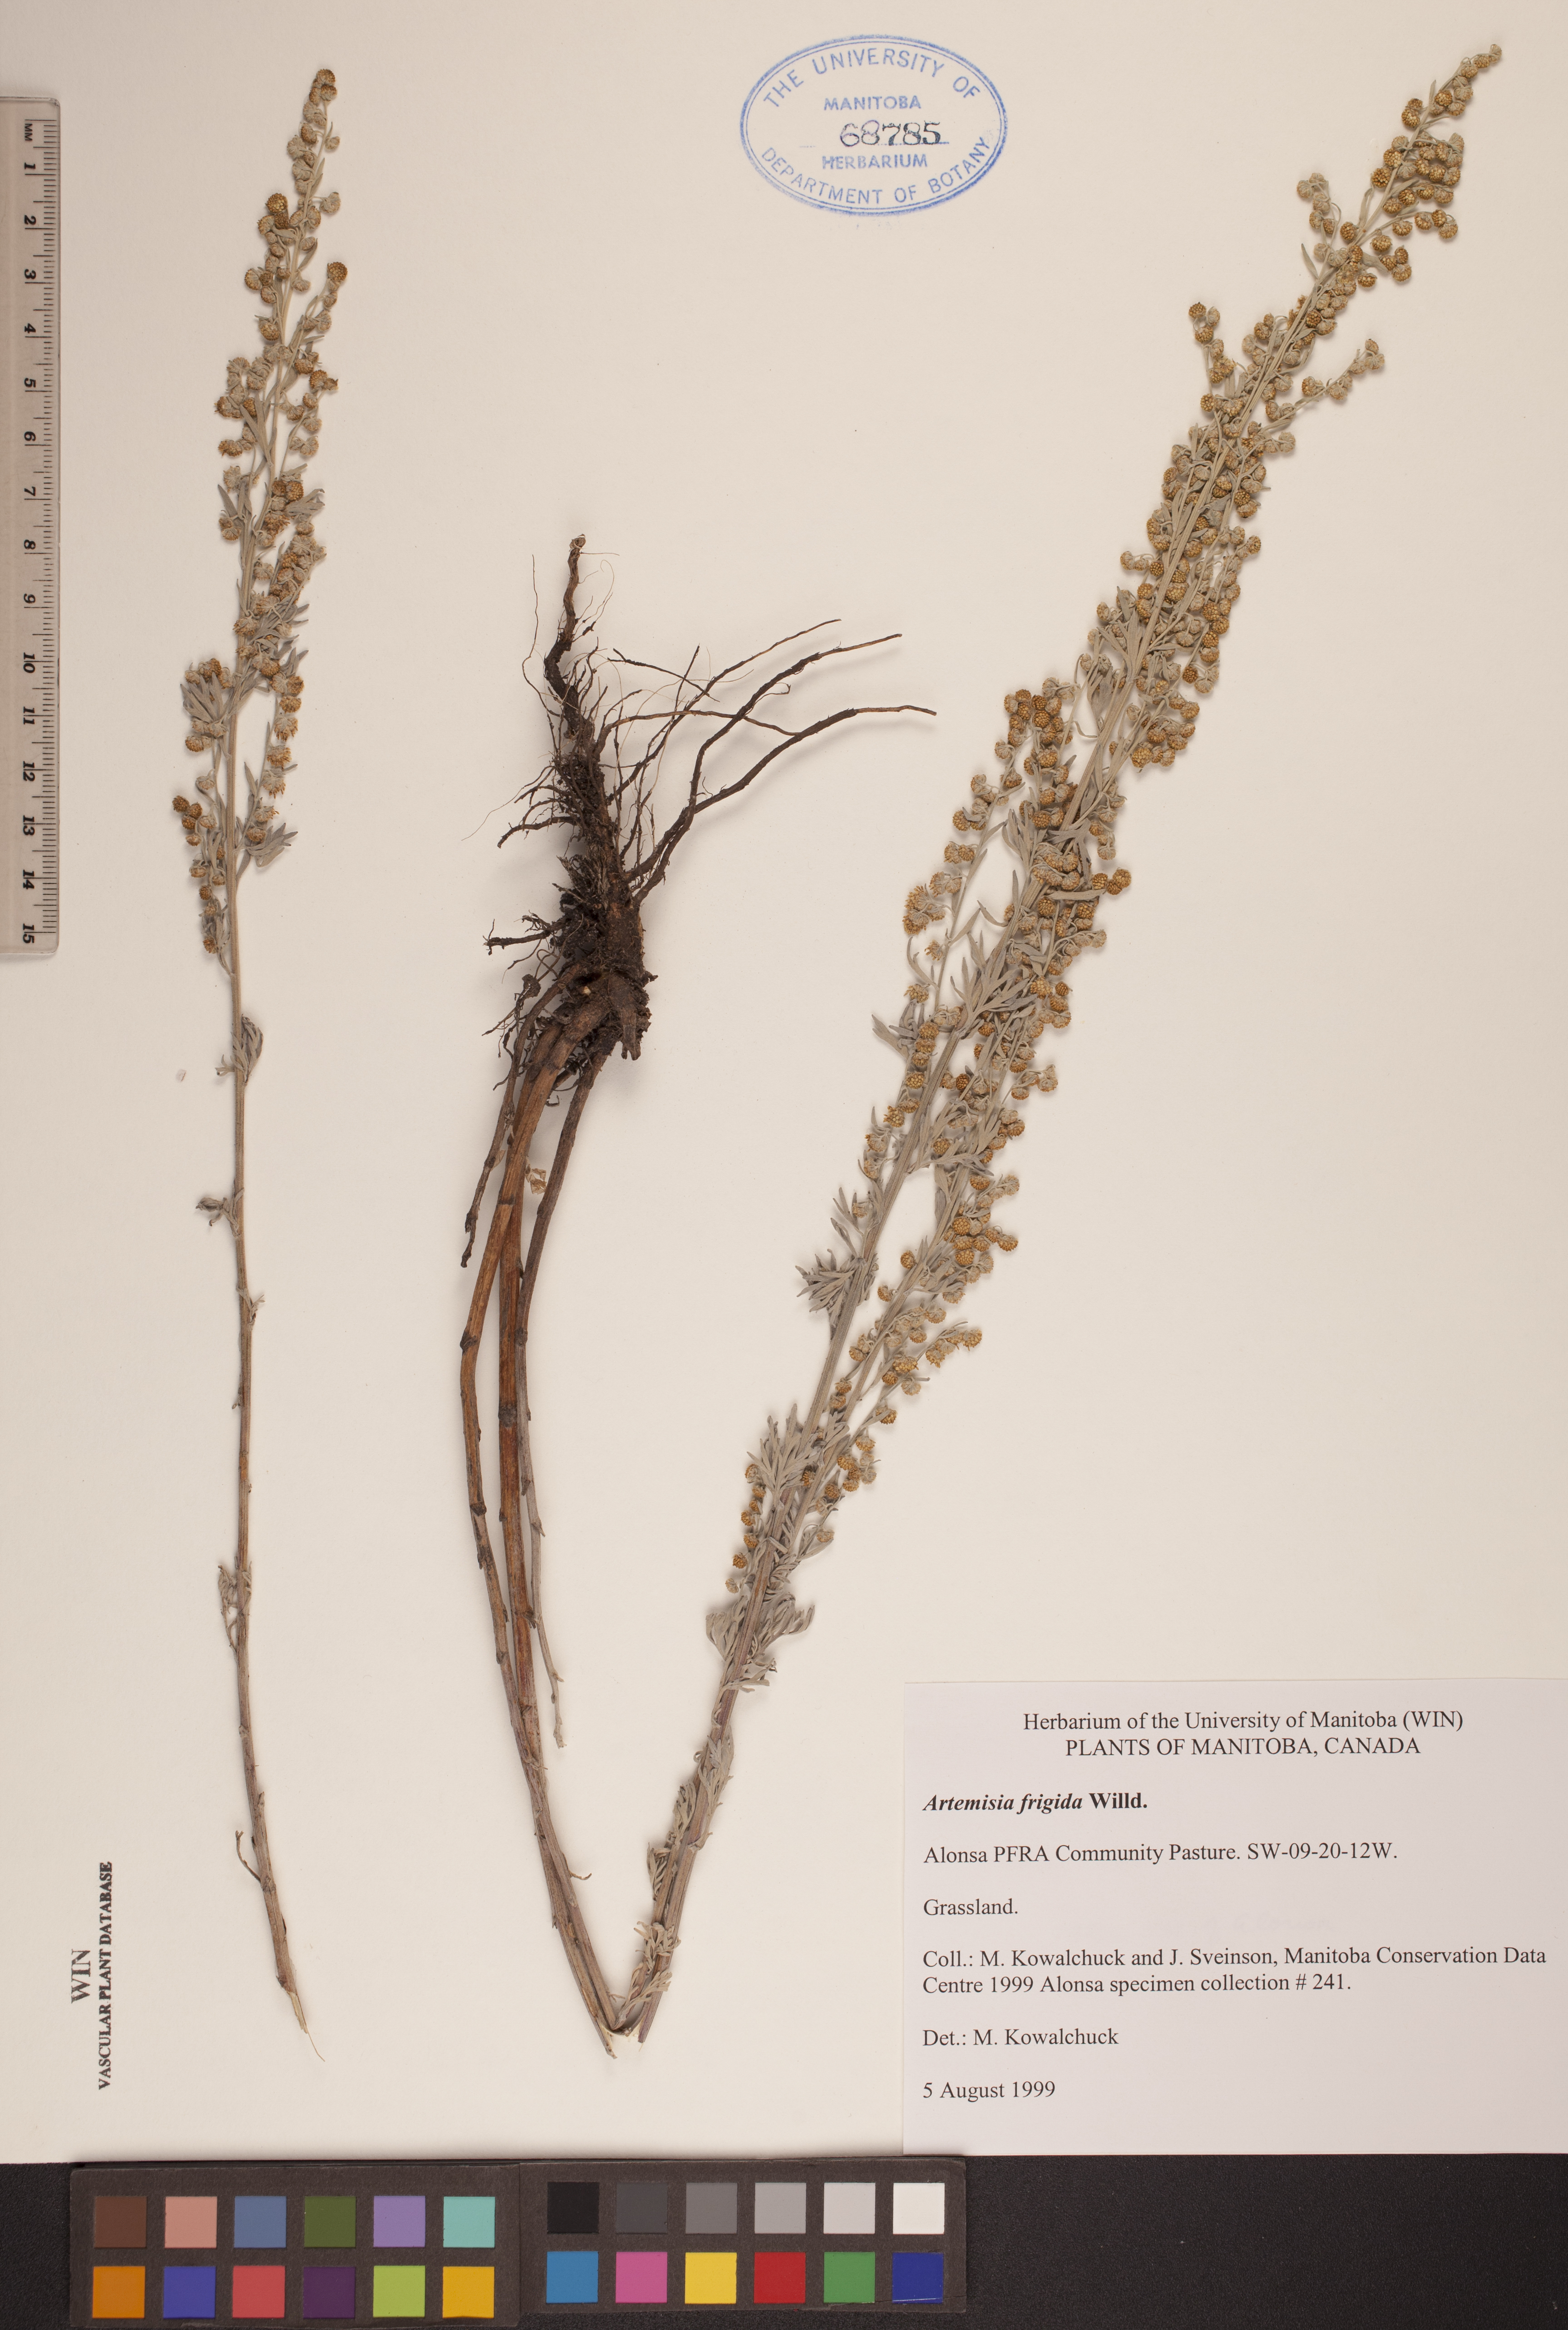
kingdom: Plantae
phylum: Tracheophyta
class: Magnoliopsida
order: Asterales
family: Asteraceae
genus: Artemisia
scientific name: Artemisia frigida
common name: Prairie sagewort
